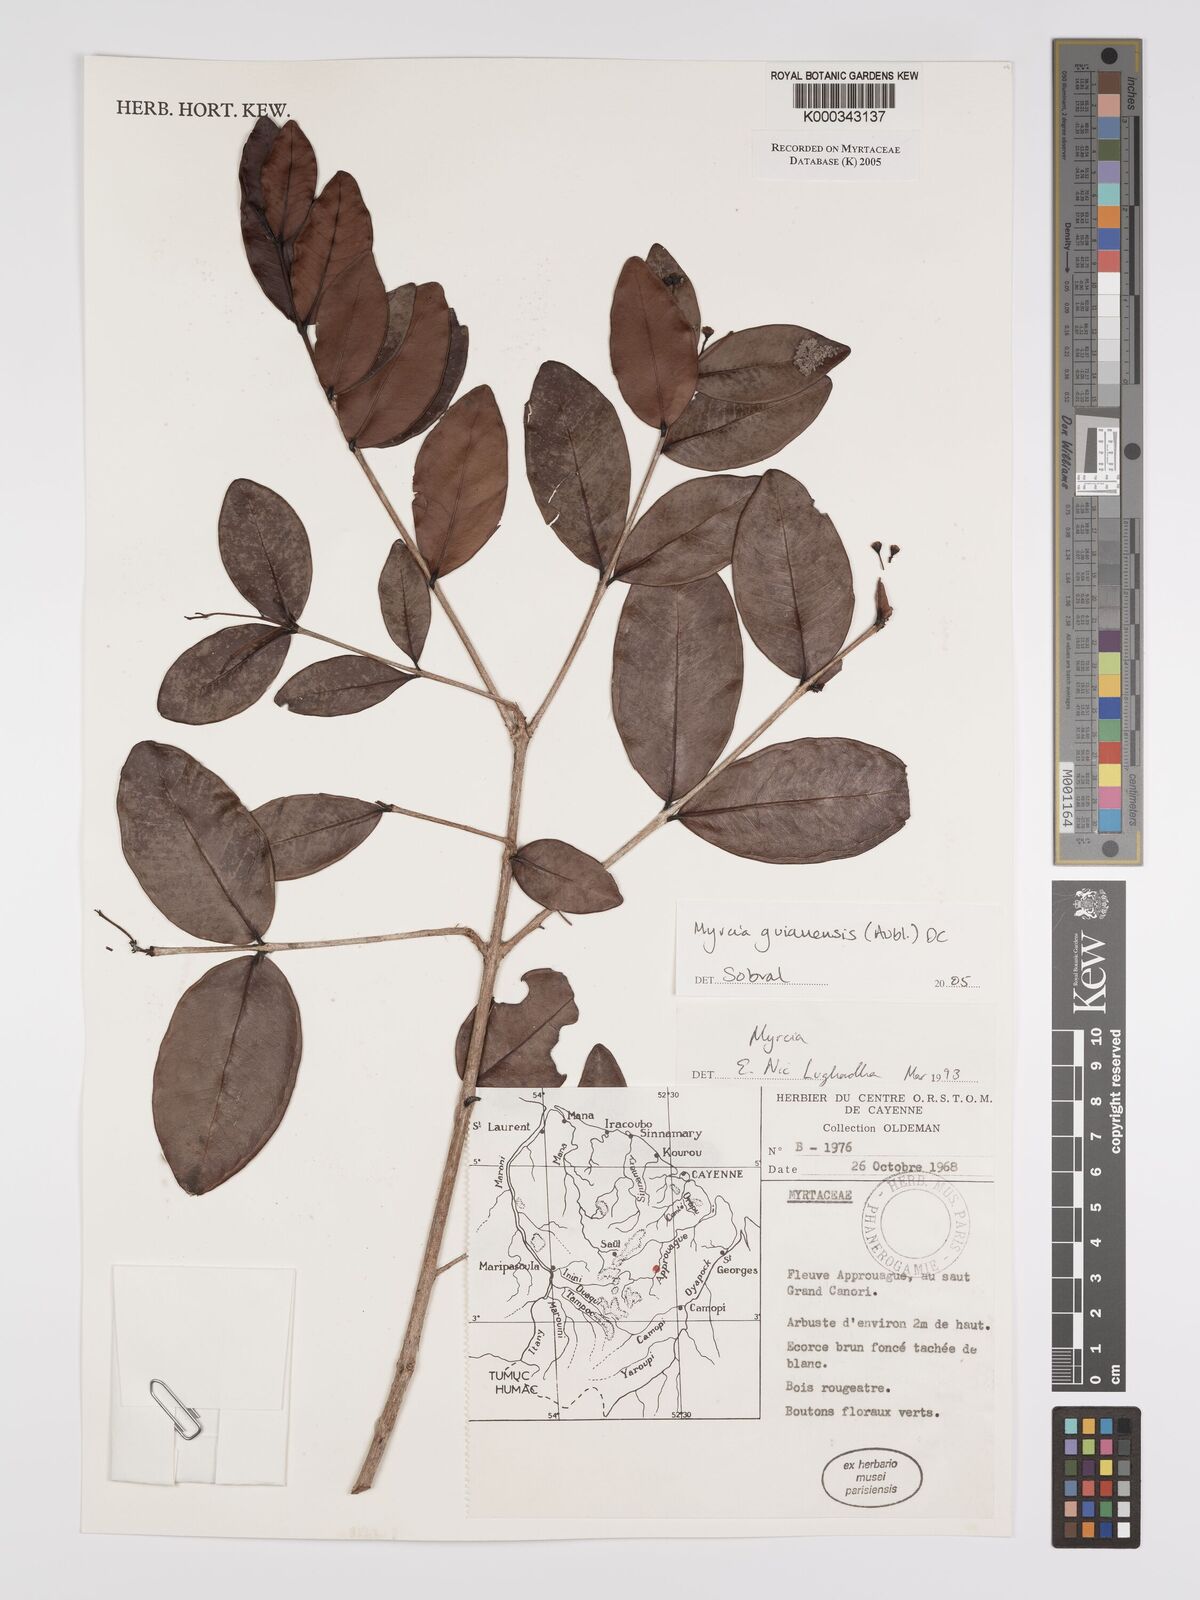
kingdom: Plantae
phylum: Tracheophyta
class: Magnoliopsida
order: Myrtales
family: Myrtaceae
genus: Myrcia
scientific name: Myrcia guianensis
